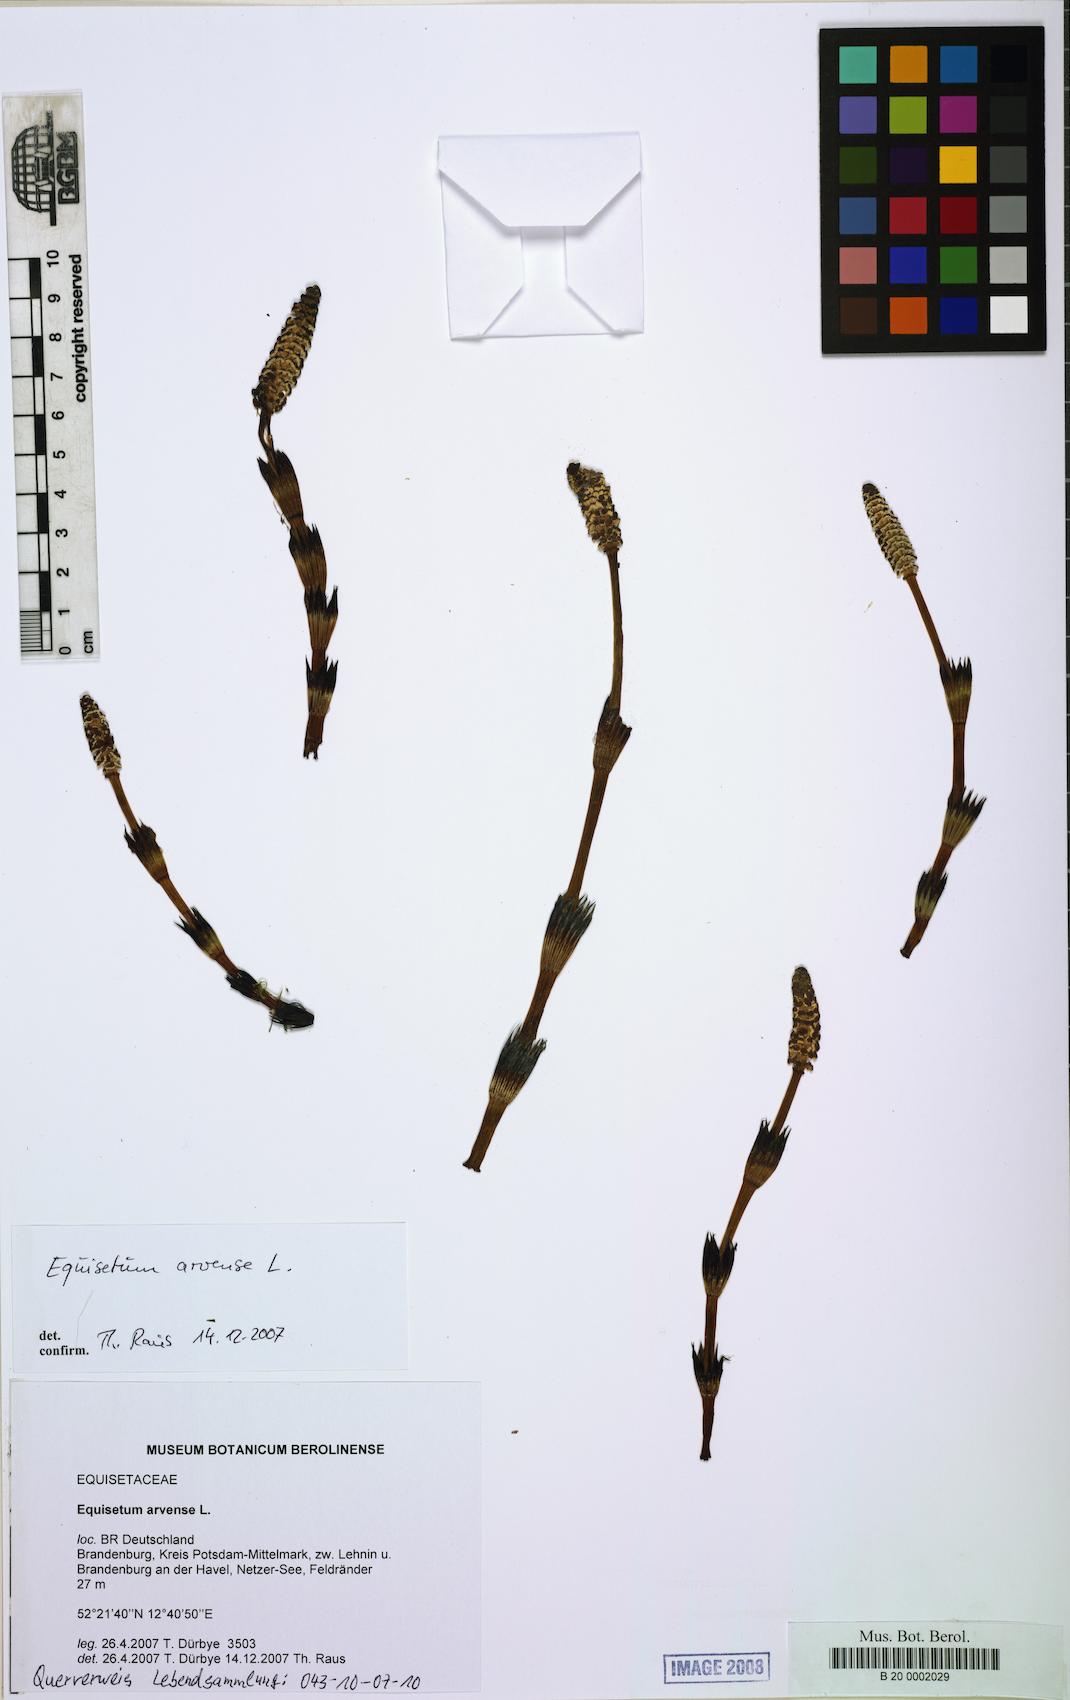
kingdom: Plantae
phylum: Tracheophyta
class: Polypodiopsida
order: Equisetales
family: Equisetaceae
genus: Equisetum
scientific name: Equisetum arvense
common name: Field horsetail
